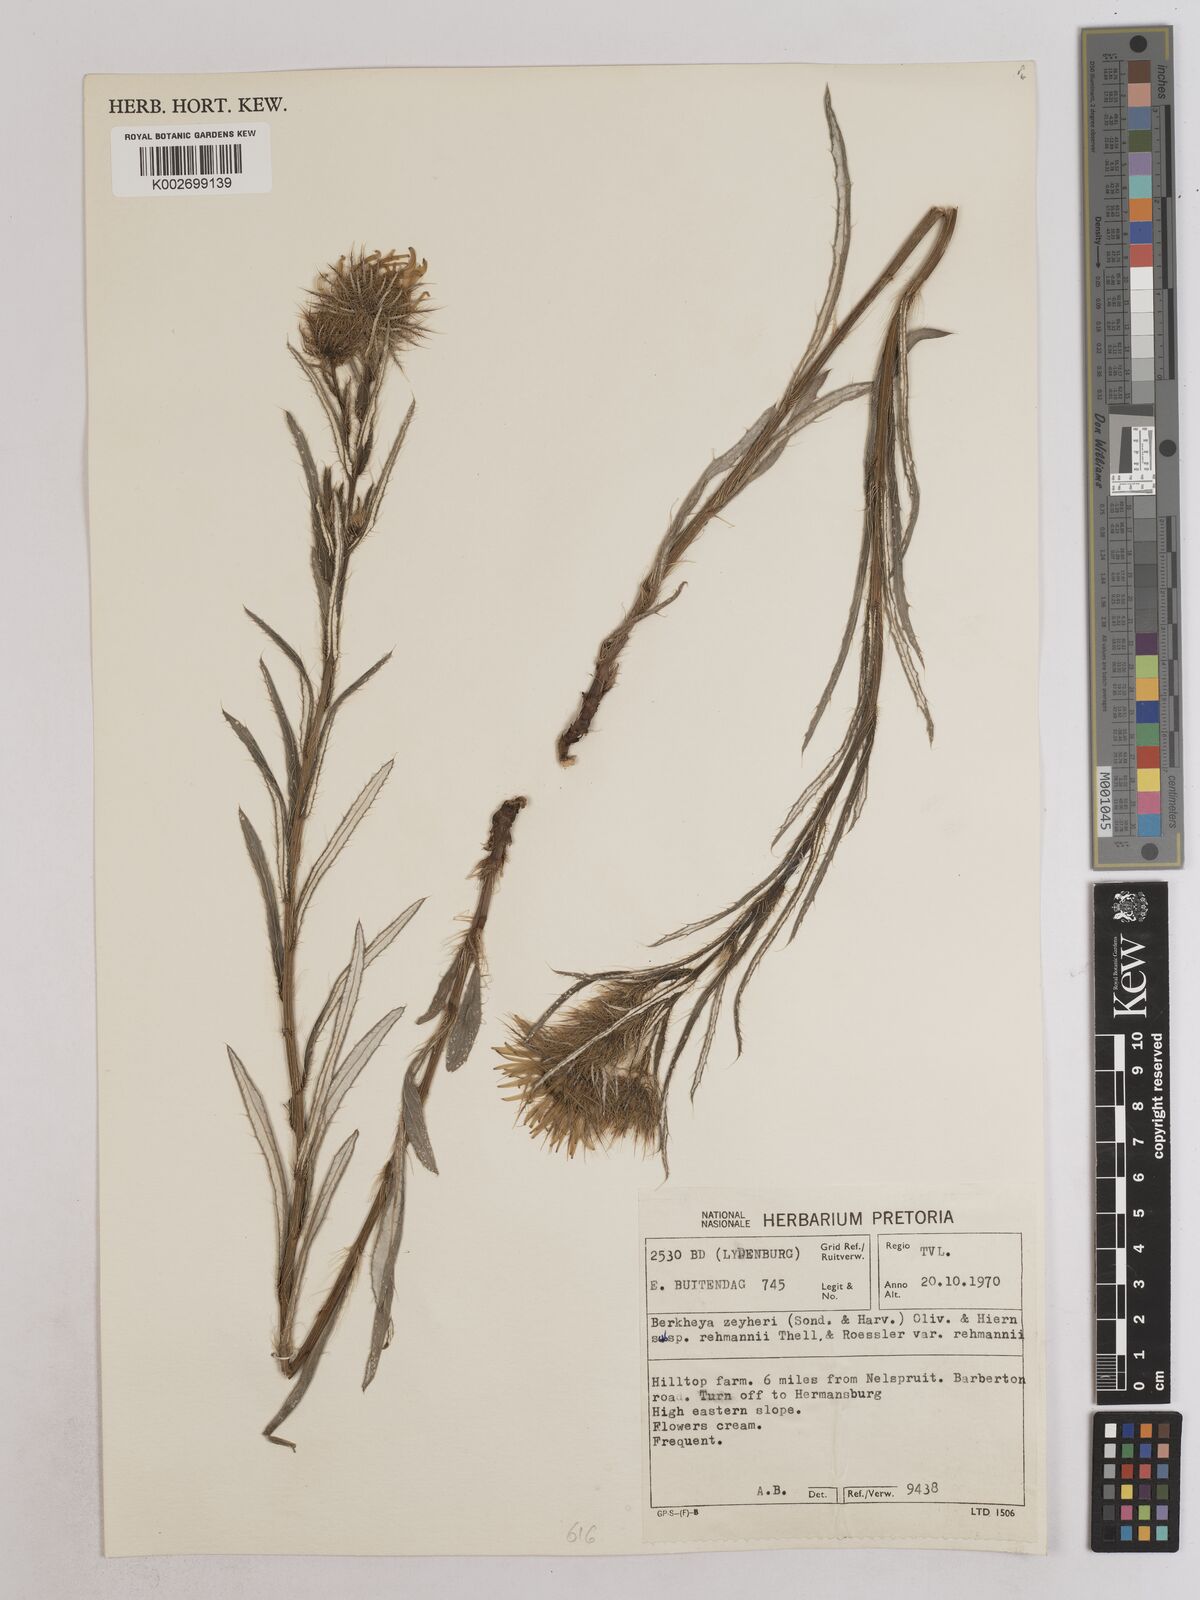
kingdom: Plantae
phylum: Tracheophyta
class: Magnoliopsida
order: Asterales
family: Asteraceae
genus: Berkheya
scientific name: Berkheya insignis
